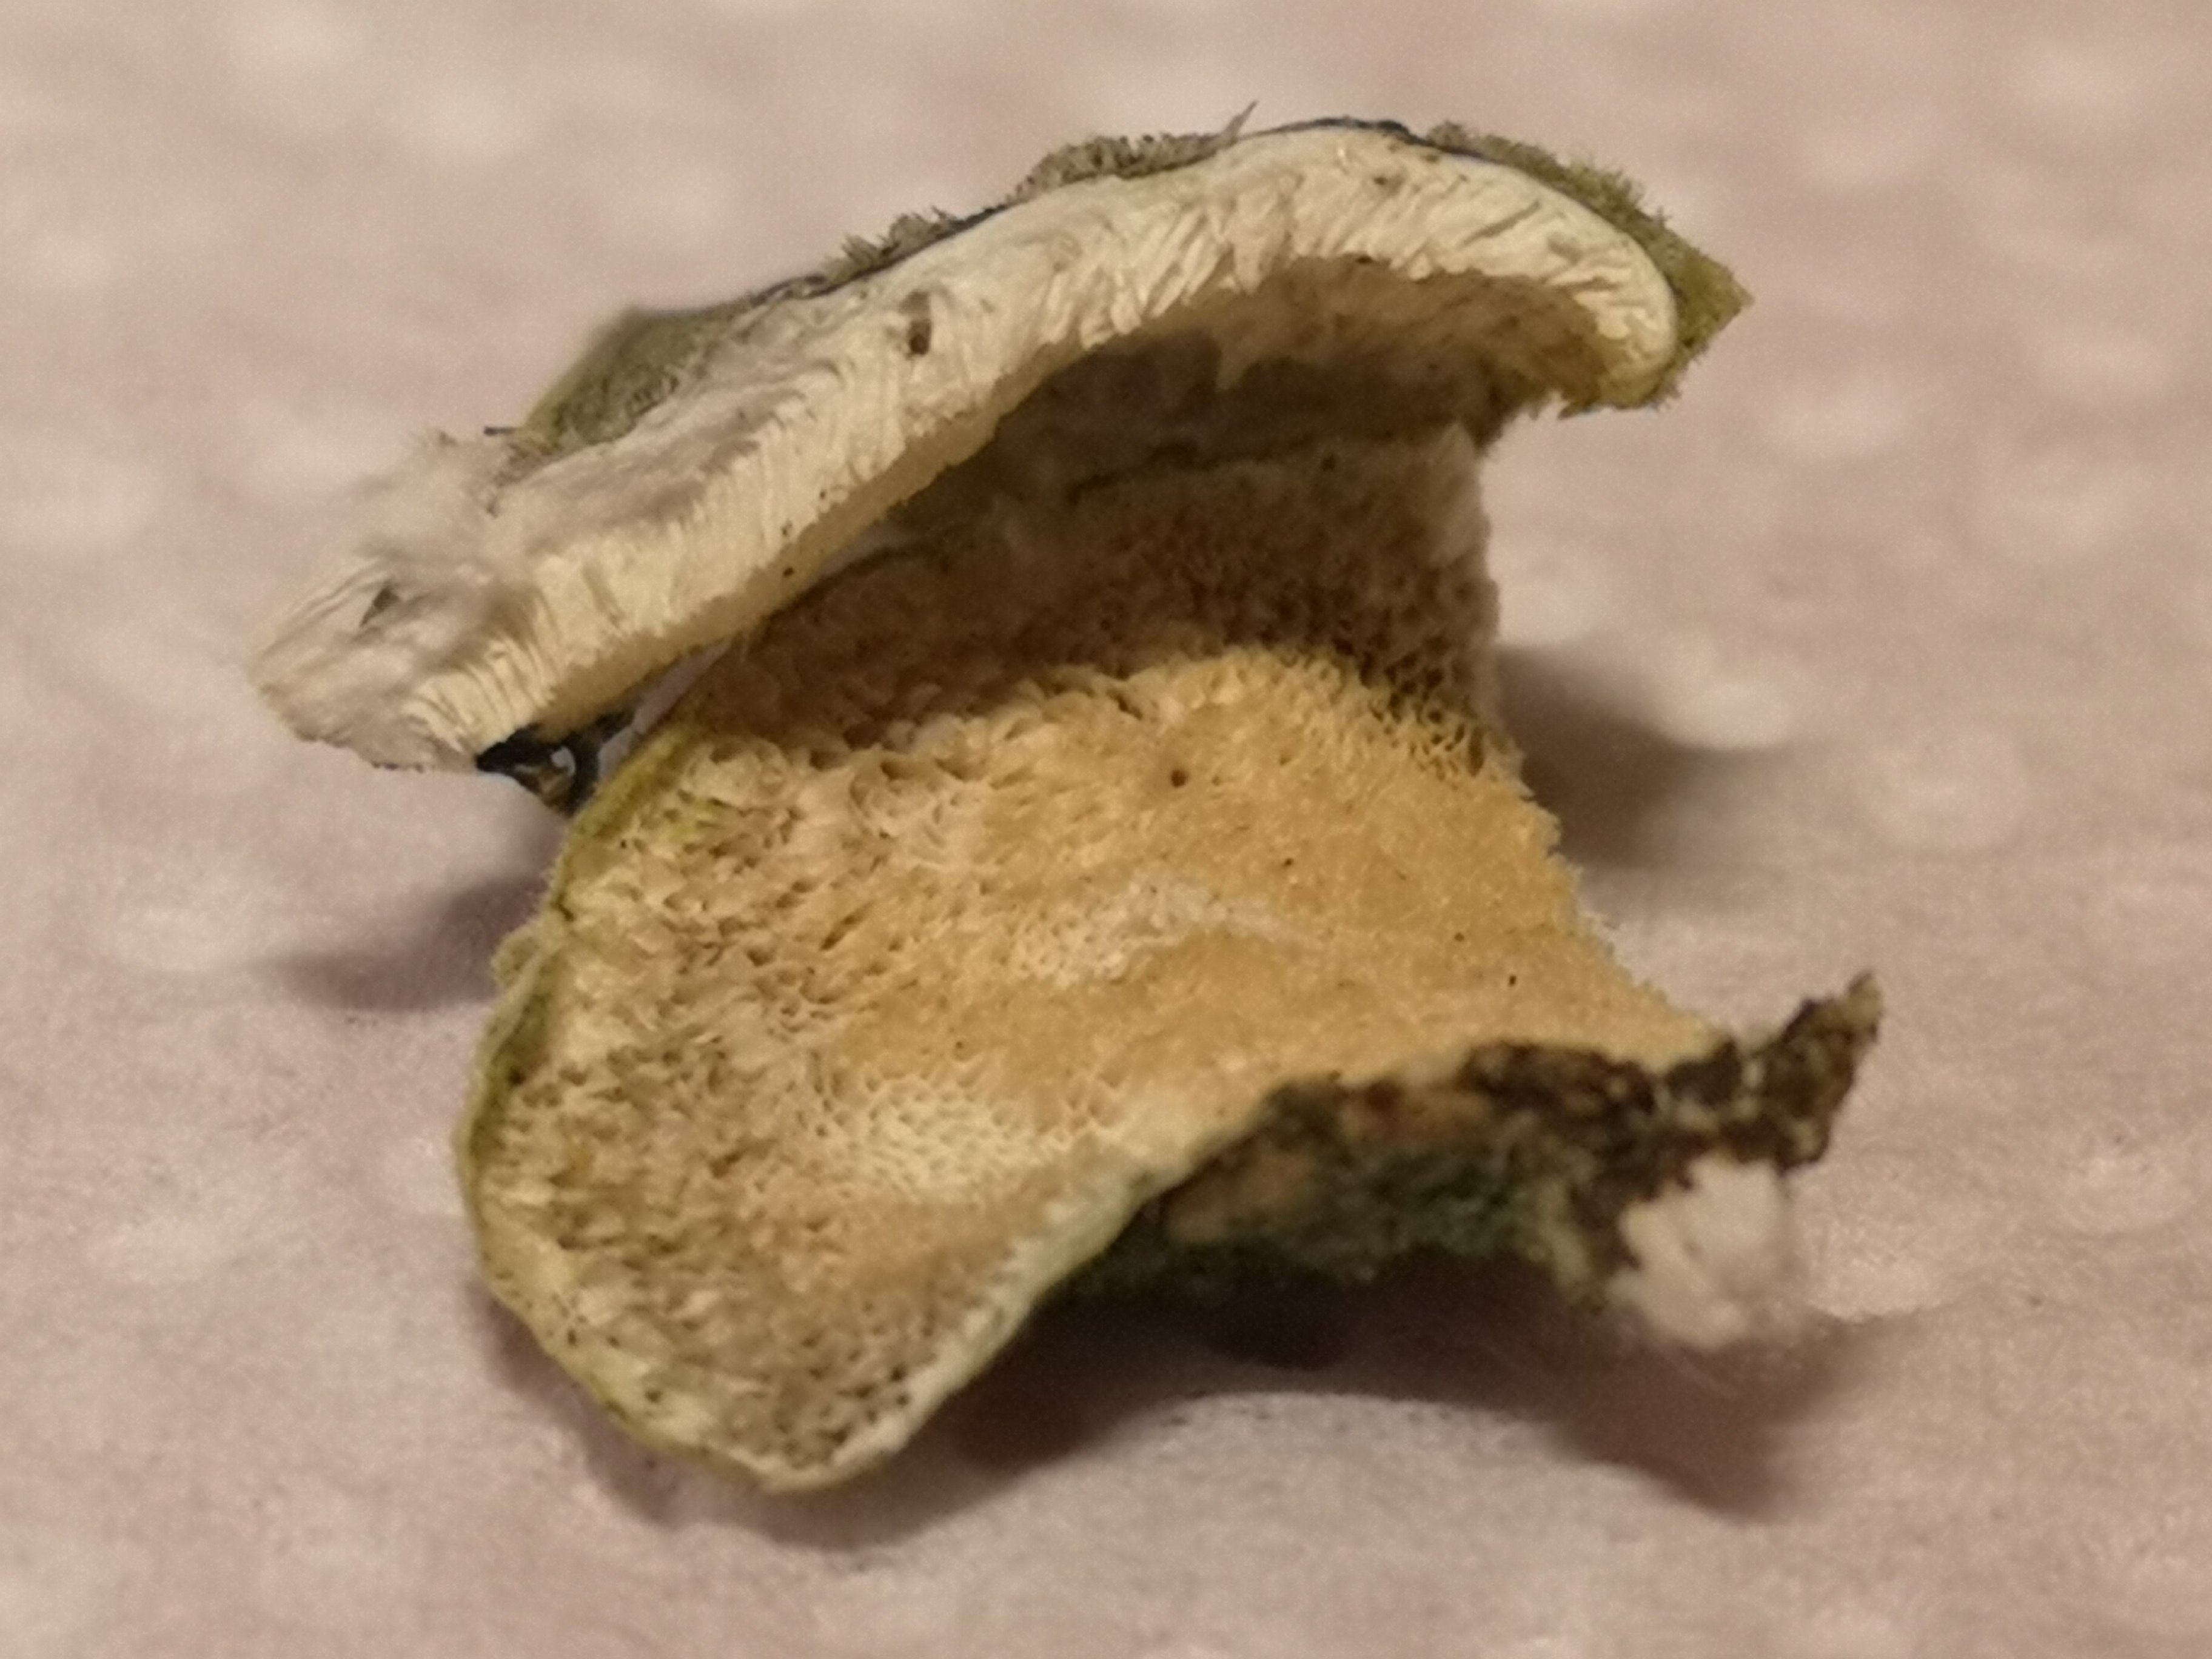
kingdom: Fungi
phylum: Basidiomycota
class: Agaricomycetes
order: Polyporales
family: Polyporaceae
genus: Trametes
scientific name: Trametes versicolor
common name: broget læderporesvamp
